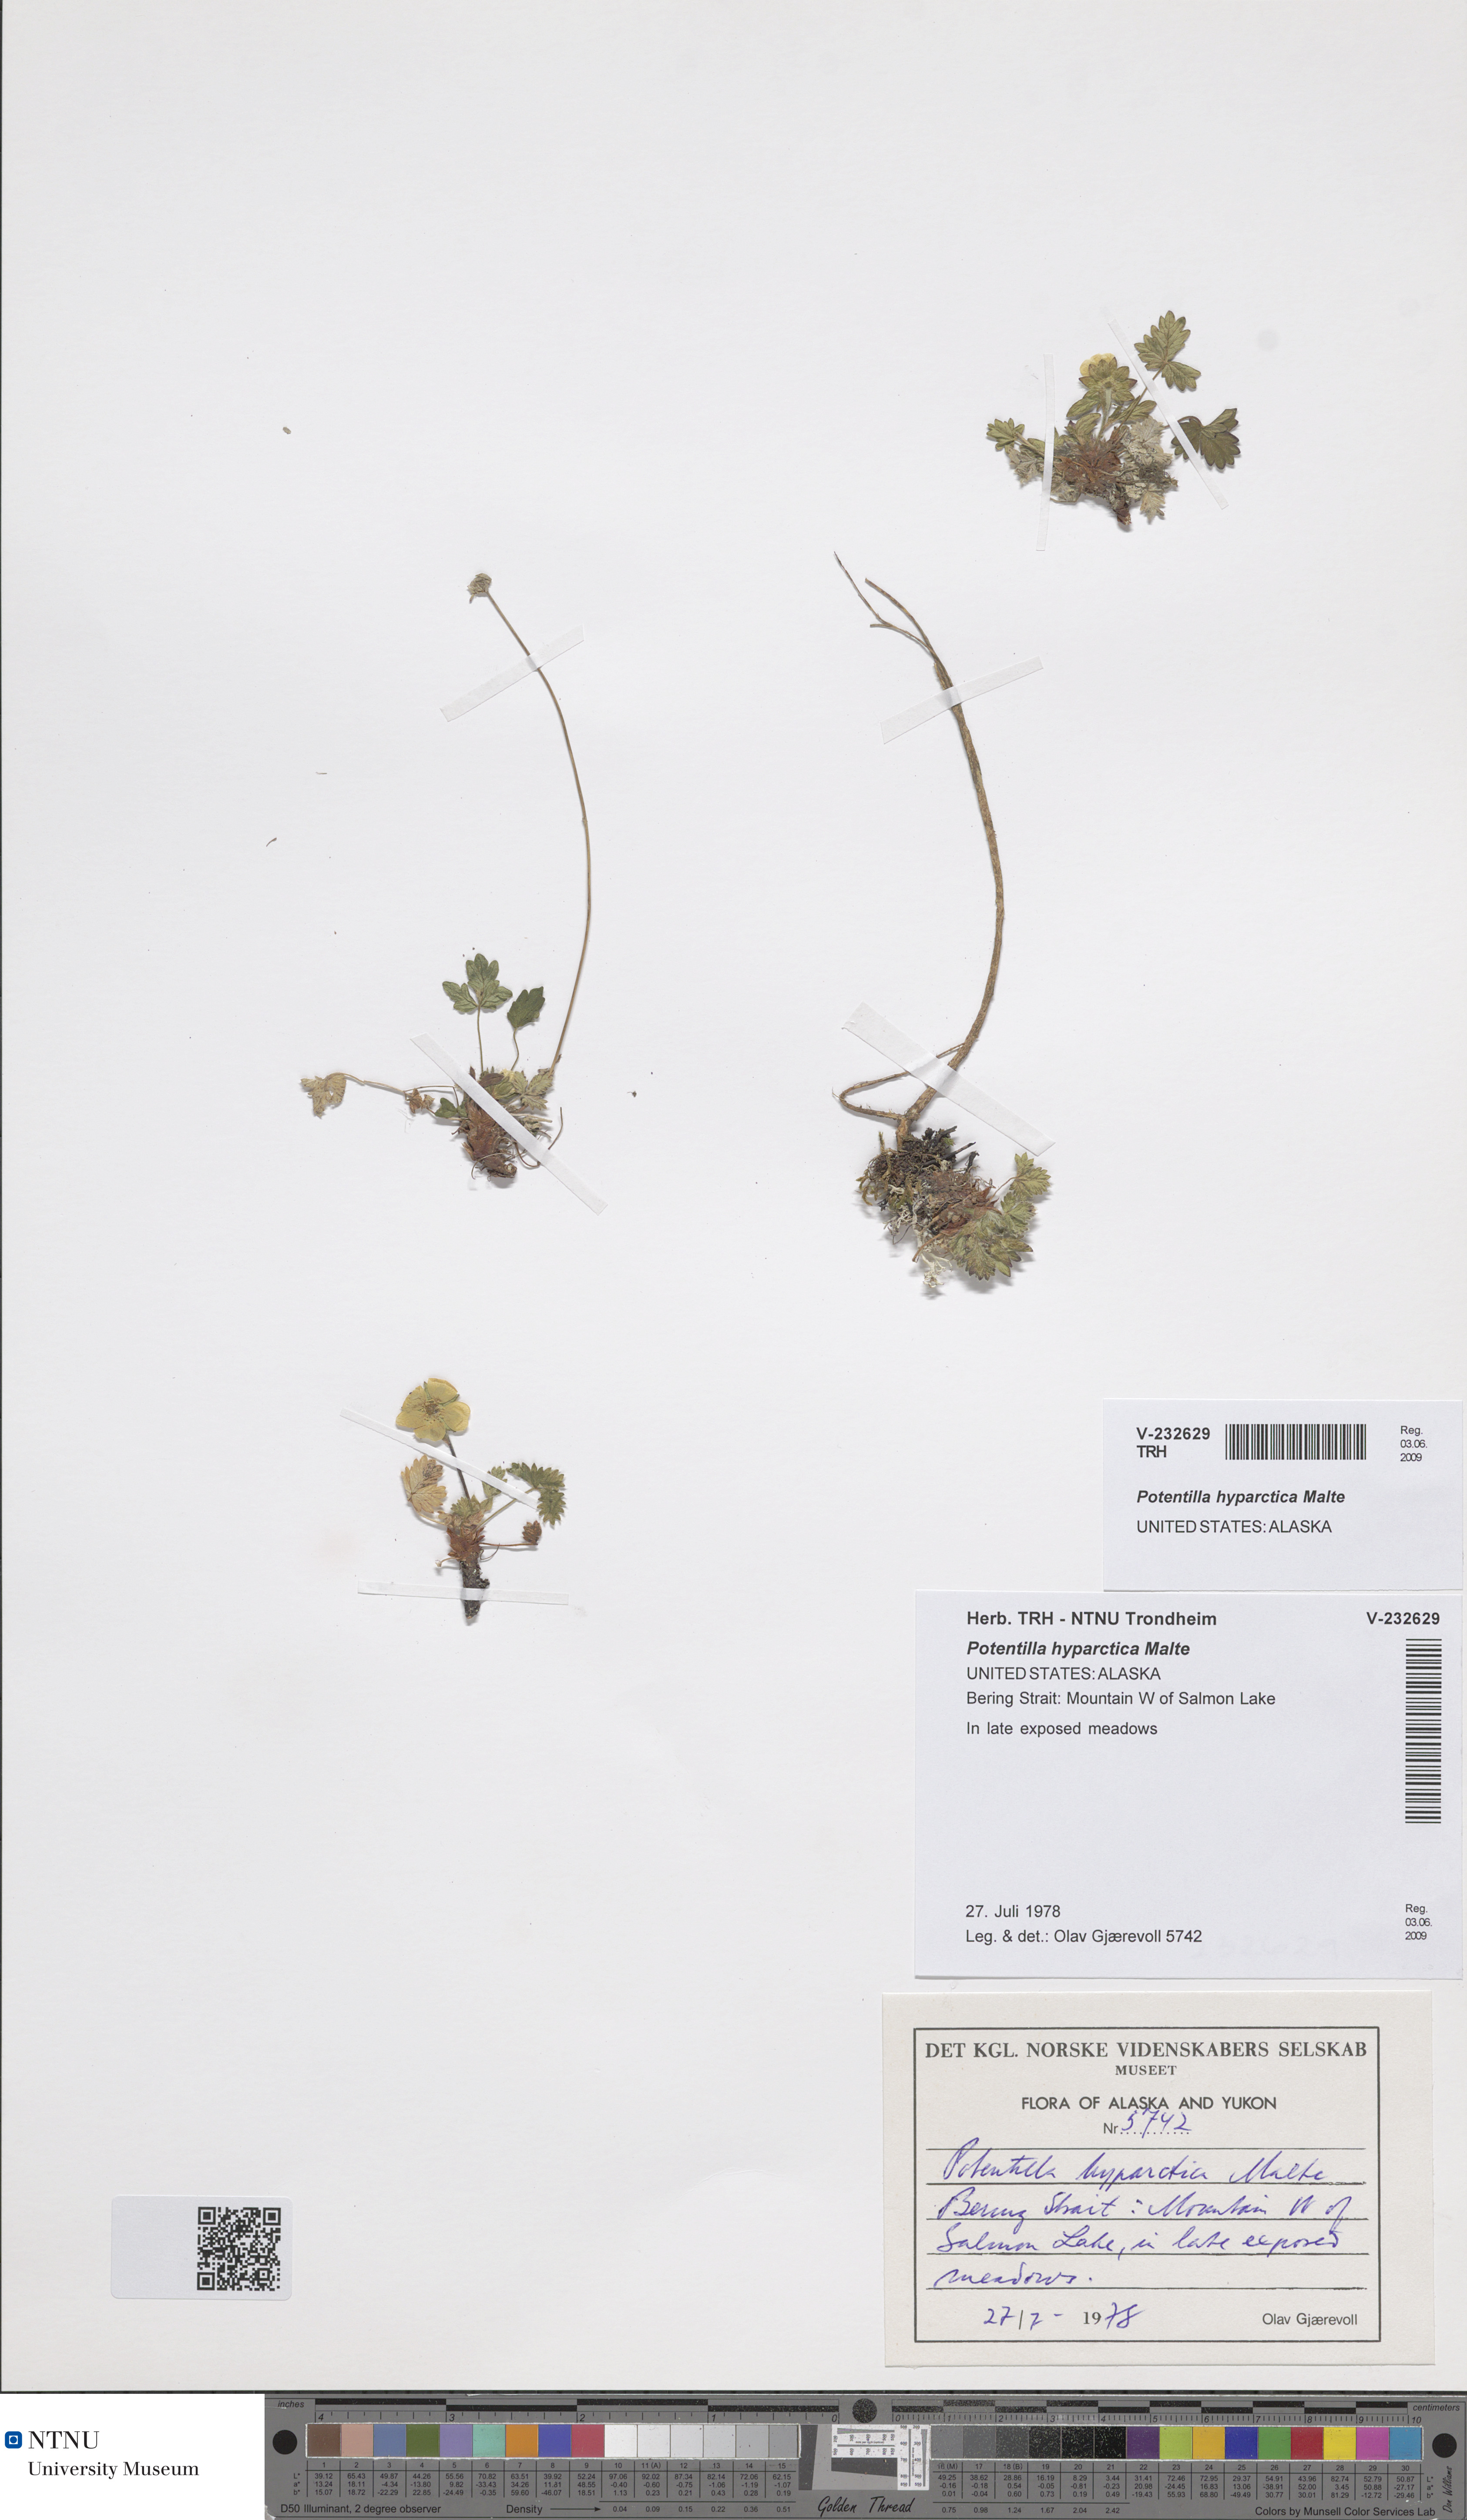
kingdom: Plantae
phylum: Tracheophyta
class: Magnoliopsida
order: Rosales
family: Rosaceae
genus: Potentilla
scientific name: Potentilla hyparctica
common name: Arctic cinquefoil
